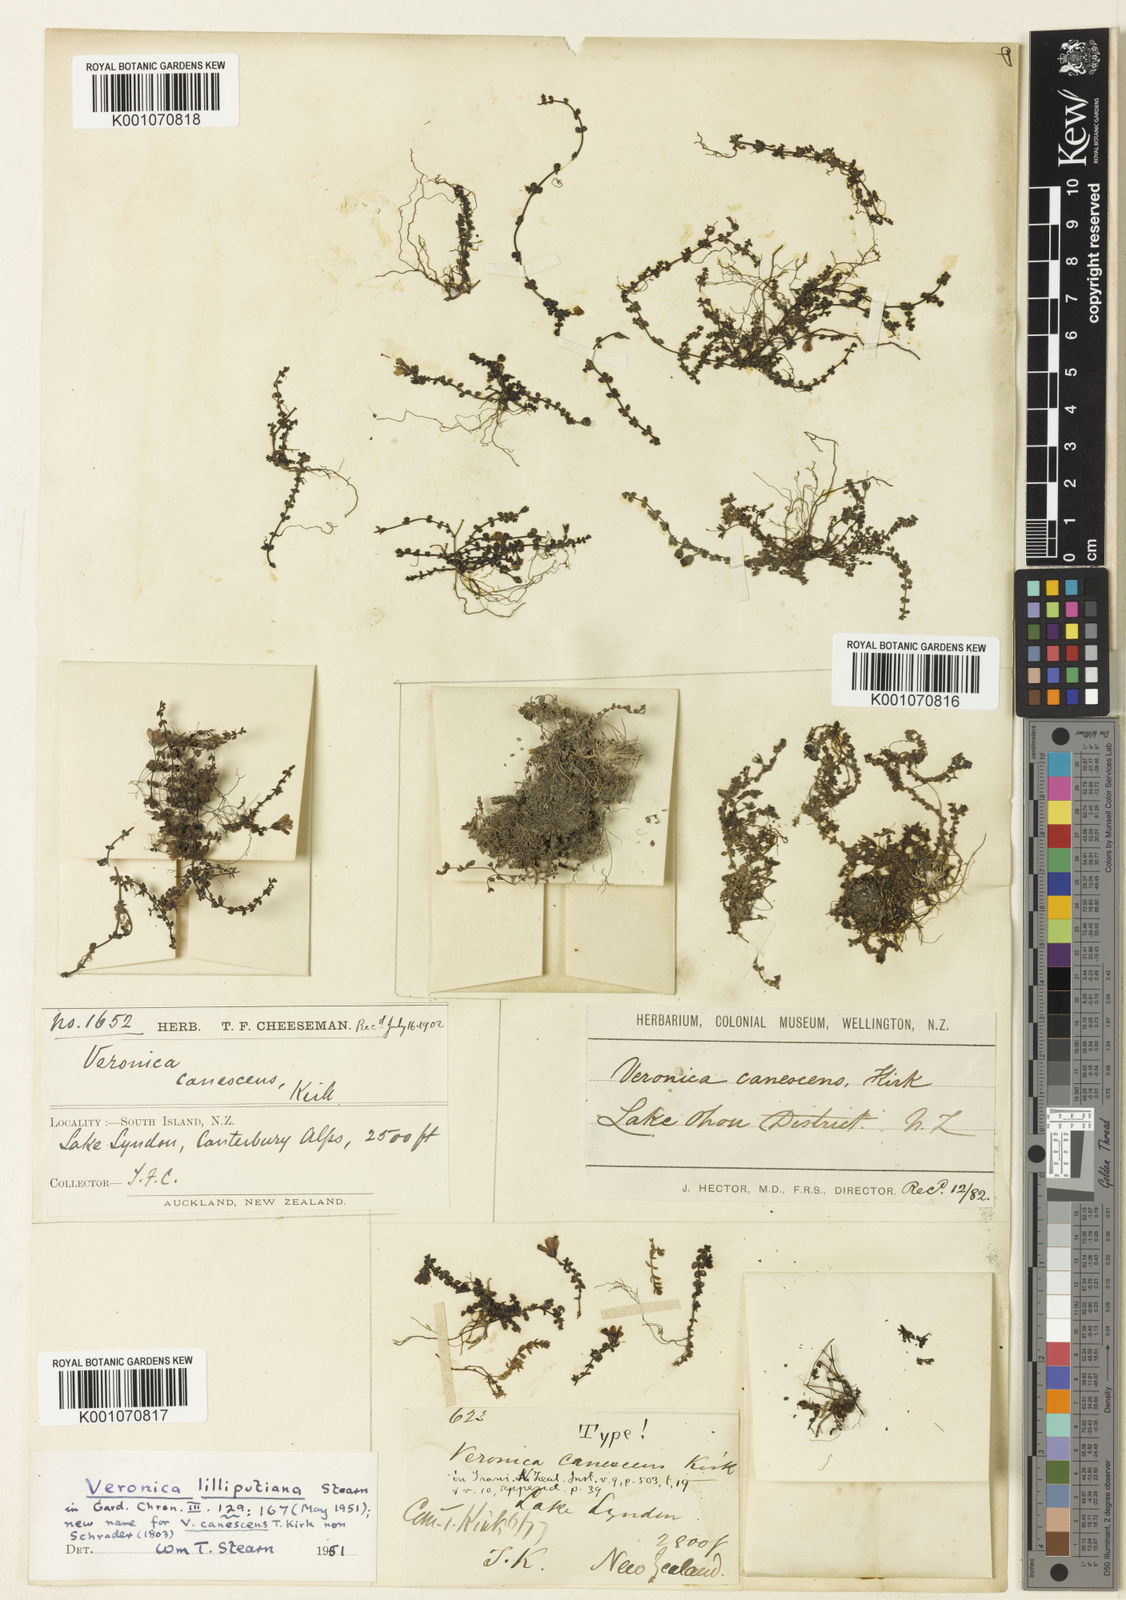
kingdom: Plantae
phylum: Tracheophyta
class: Magnoliopsida
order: Lamiales
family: Plantaginaceae
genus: Veronica
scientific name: Veronica lilliputiana
